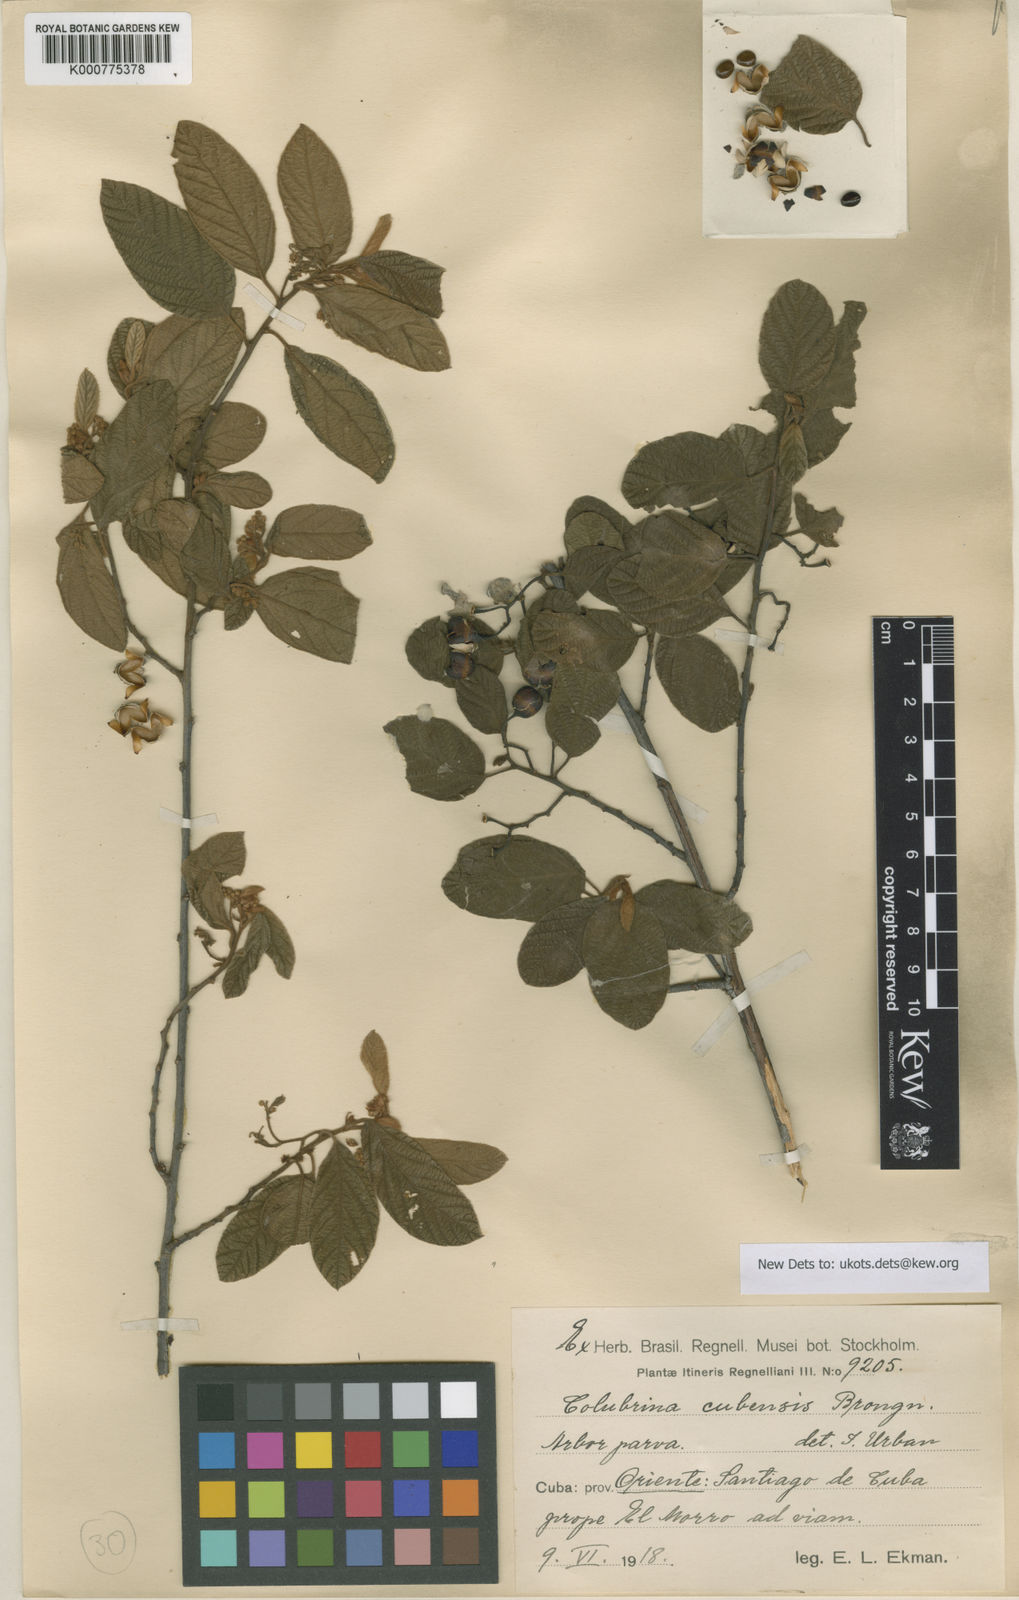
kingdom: Plantae
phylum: Tracheophyta
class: Magnoliopsida
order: Rosales
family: Rhamnaceae
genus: Colubrina
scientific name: Colubrina cubensis
